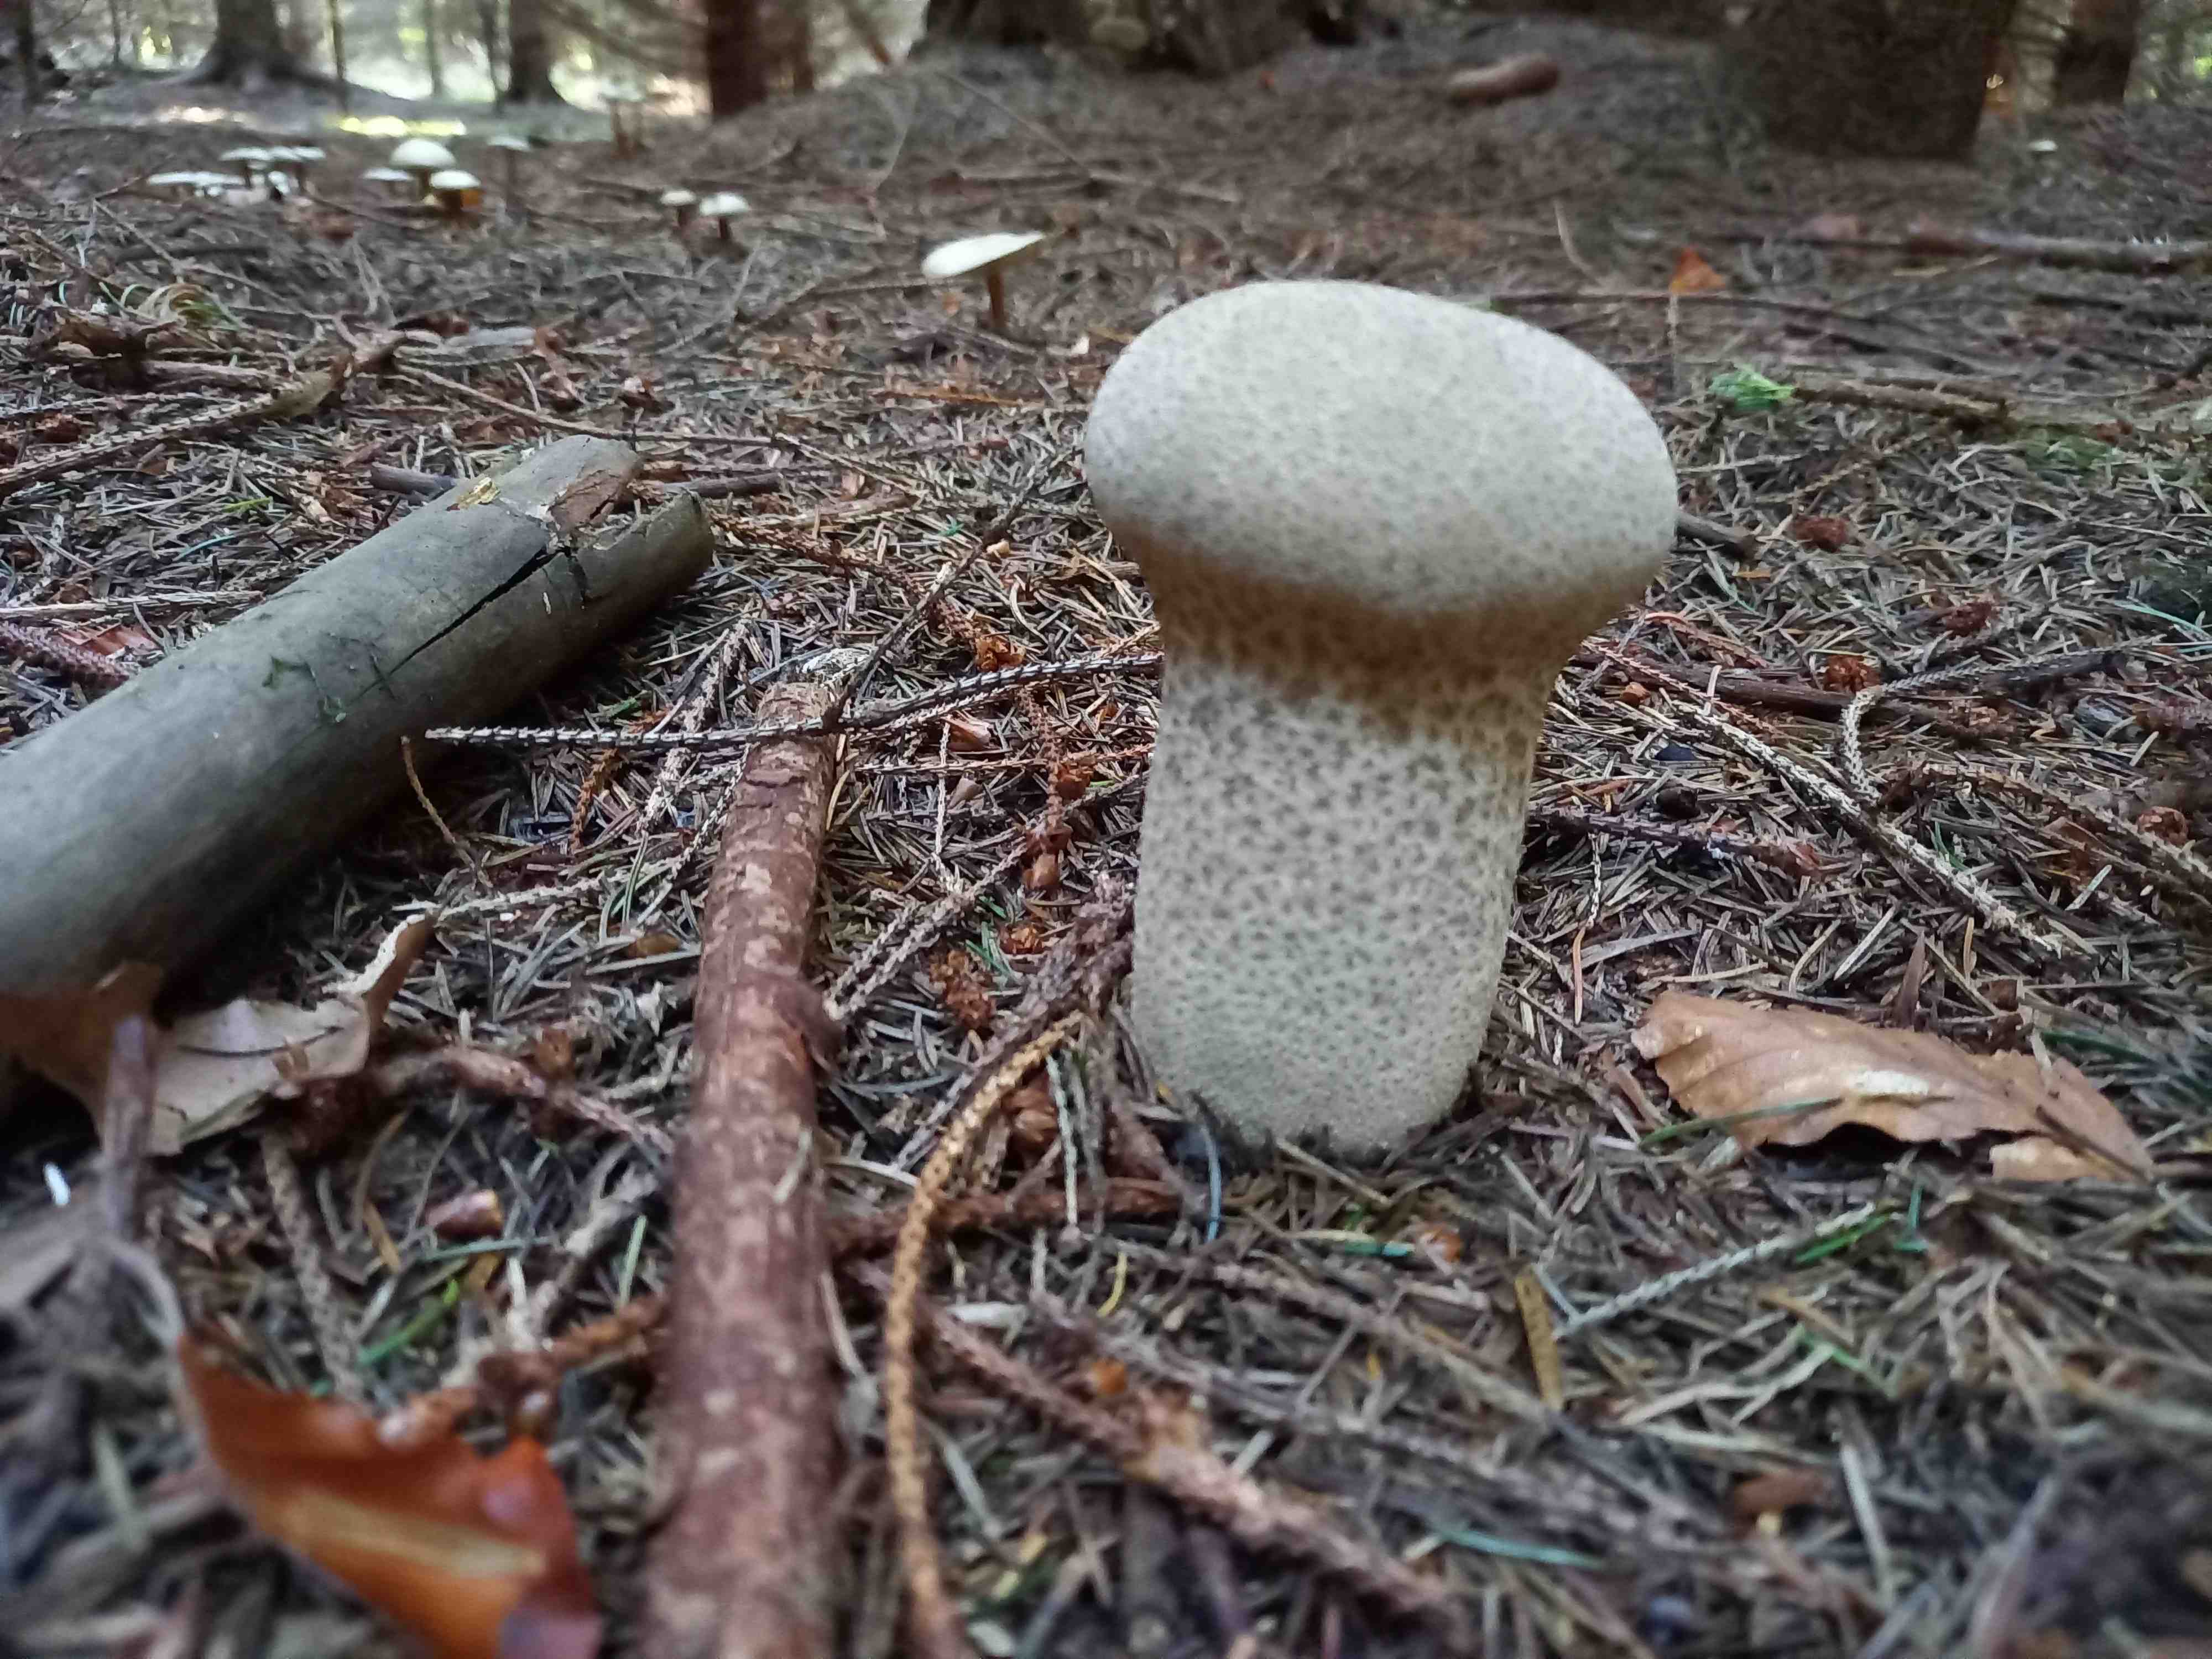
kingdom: Fungi
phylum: Basidiomycota
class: Agaricomycetes
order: Agaricales
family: Lycoperdaceae
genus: Lycoperdon
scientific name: Lycoperdon excipuliforme
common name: højstokket støvbold
